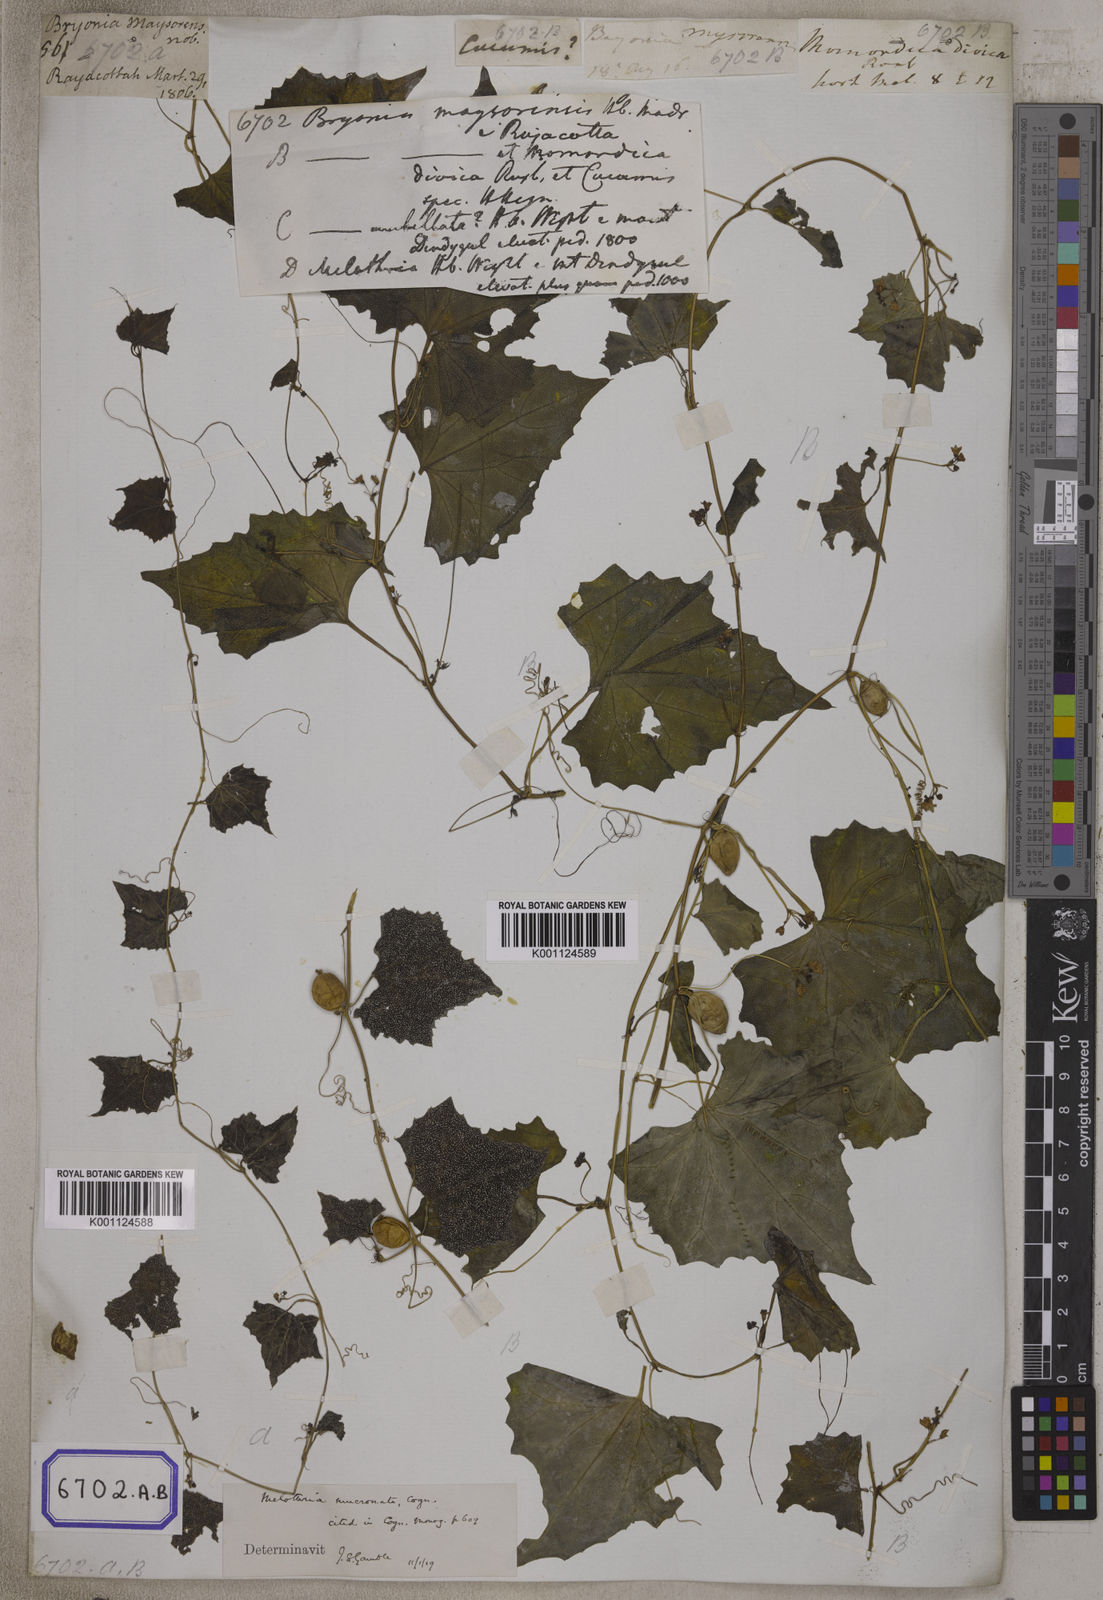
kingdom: Plantae
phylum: Tracheophyta
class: Magnoliopsida
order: Cucurbitales
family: Cucurbitaceae
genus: Bryonia
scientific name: Bryonia
